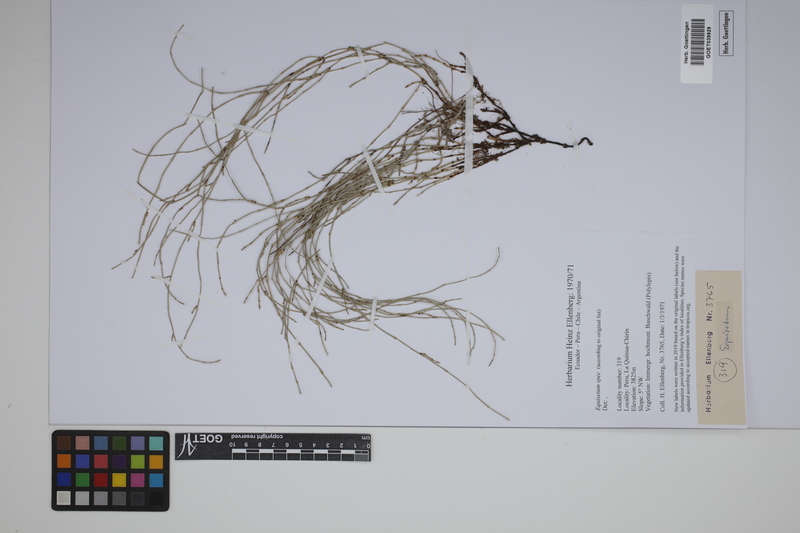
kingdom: Plantae
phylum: Tracheophyta
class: Polypodiopsida
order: Equisetales
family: Equisetaceae
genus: Equisetum
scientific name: Equisetum
